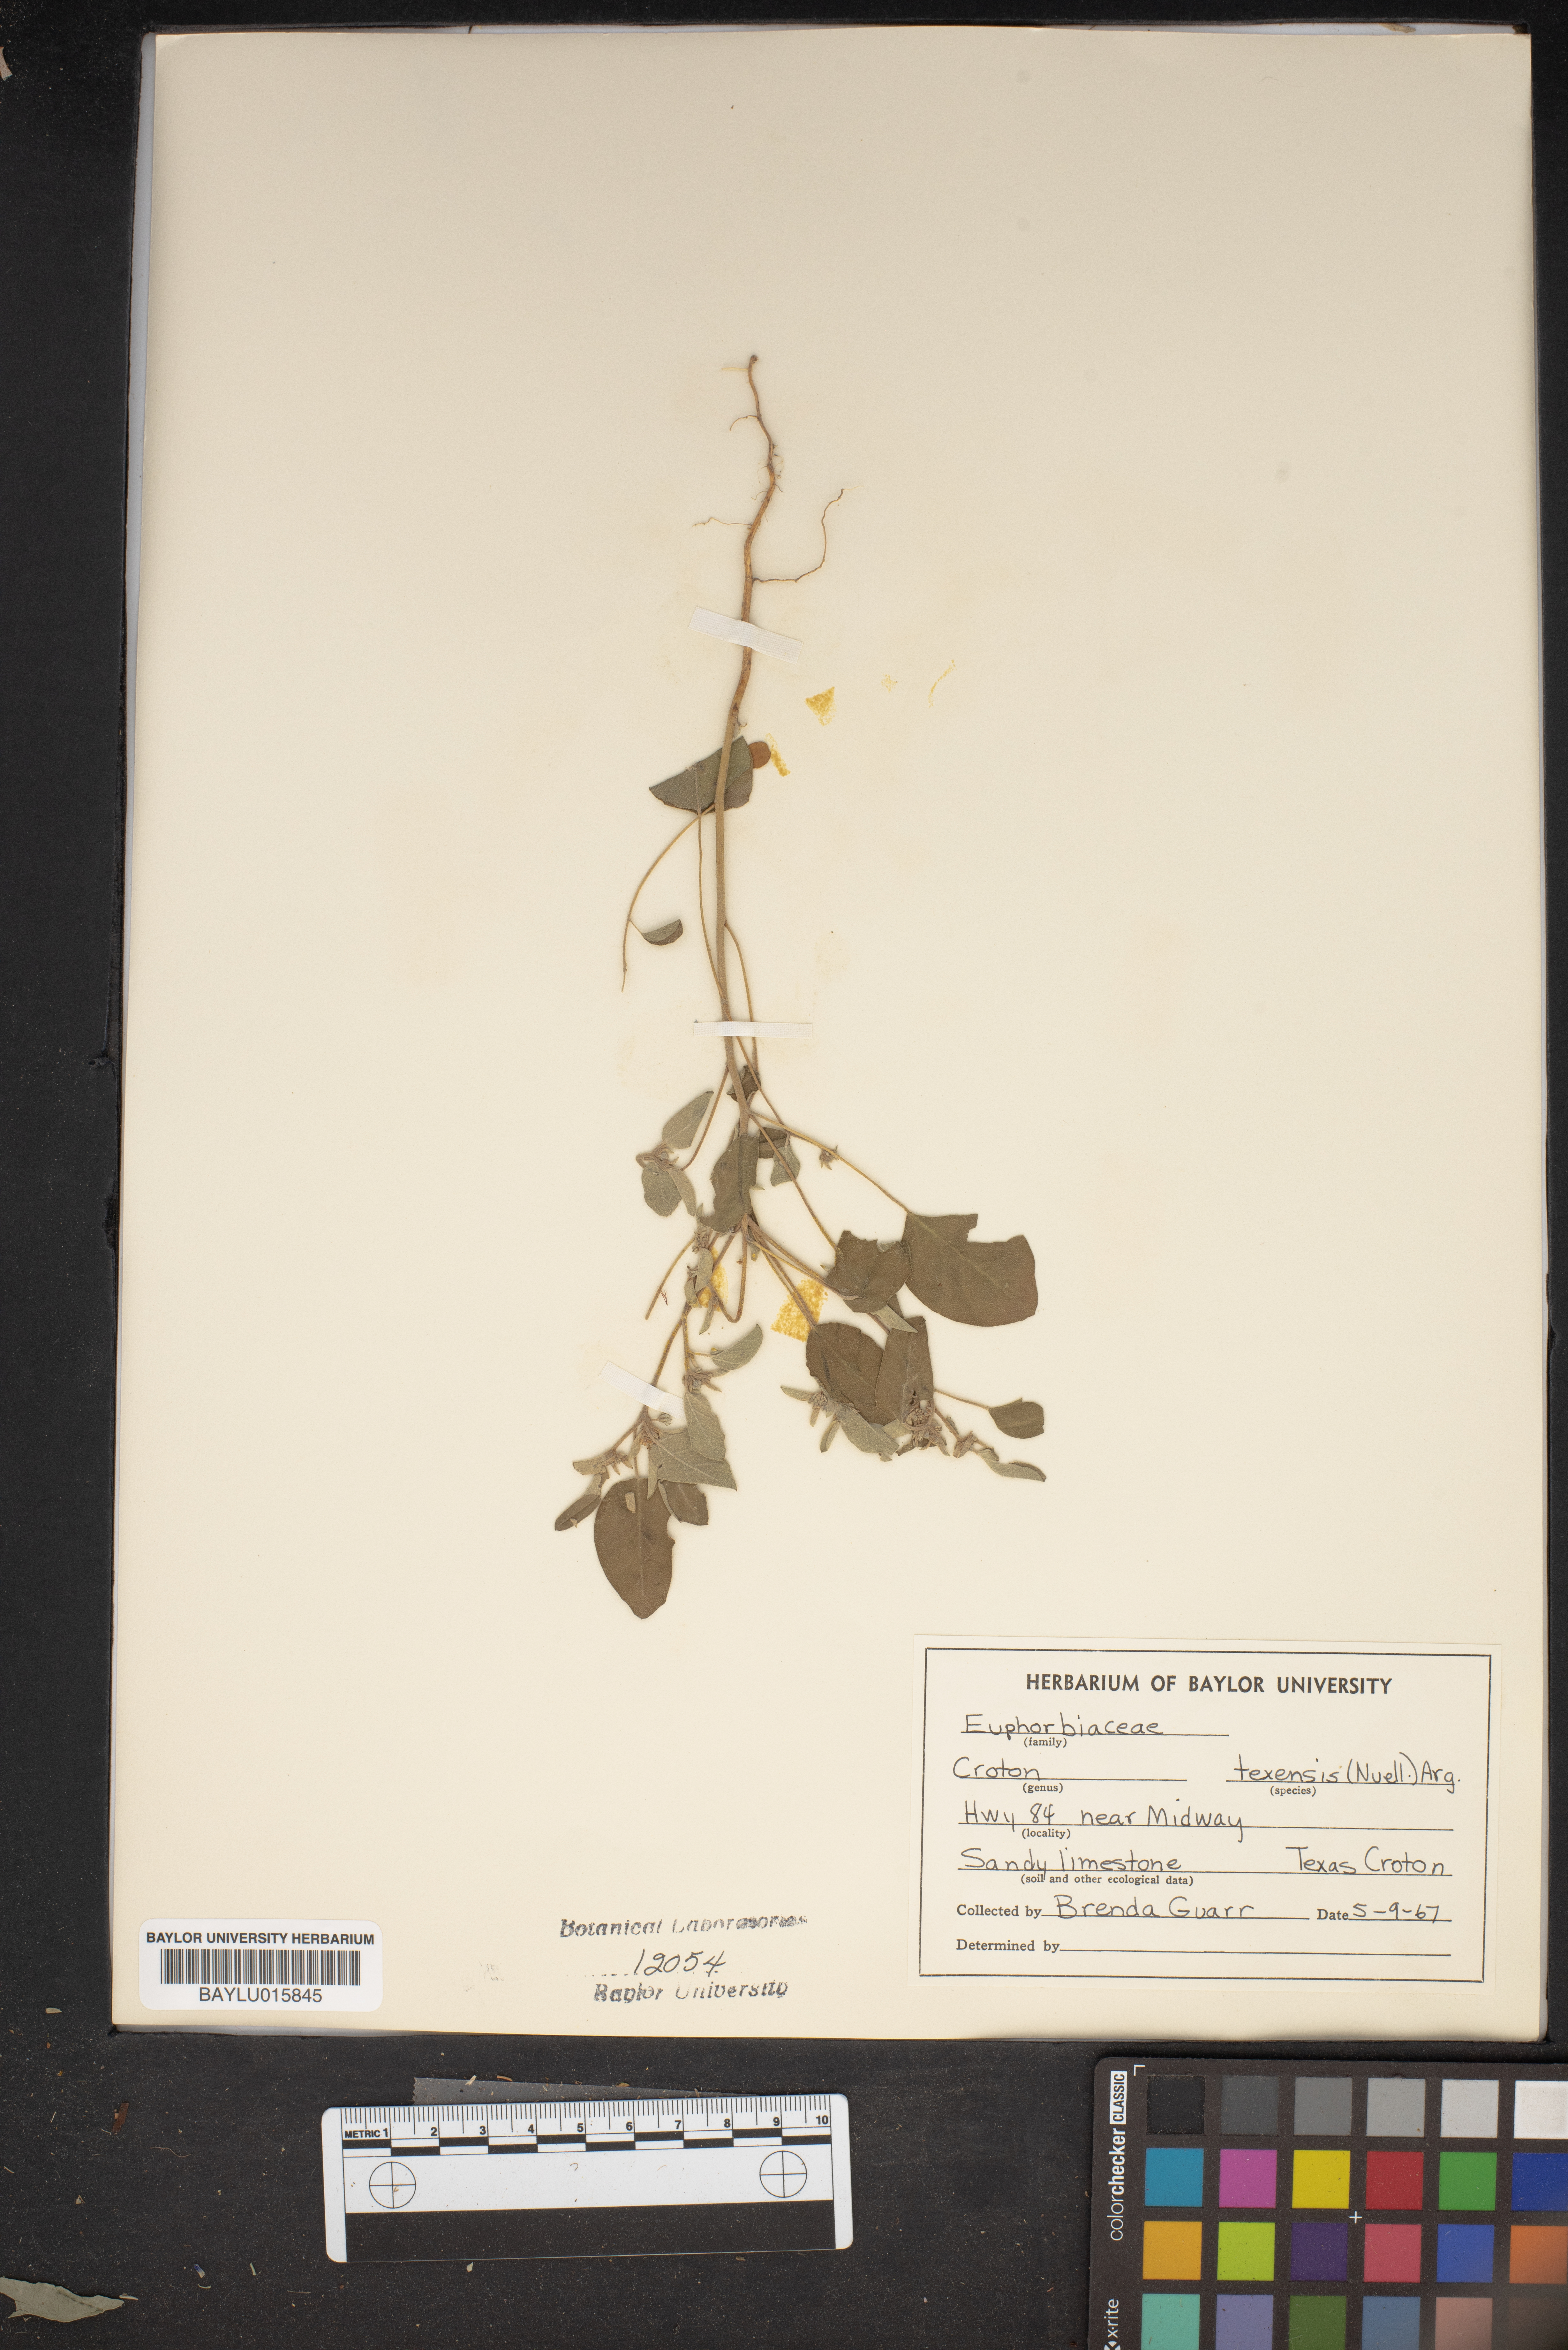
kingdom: Plantae
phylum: Tracheophyta
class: Magnoliopsida
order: Malpighiales
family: Euphorbiaceae
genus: Croton
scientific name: Croton texensis
